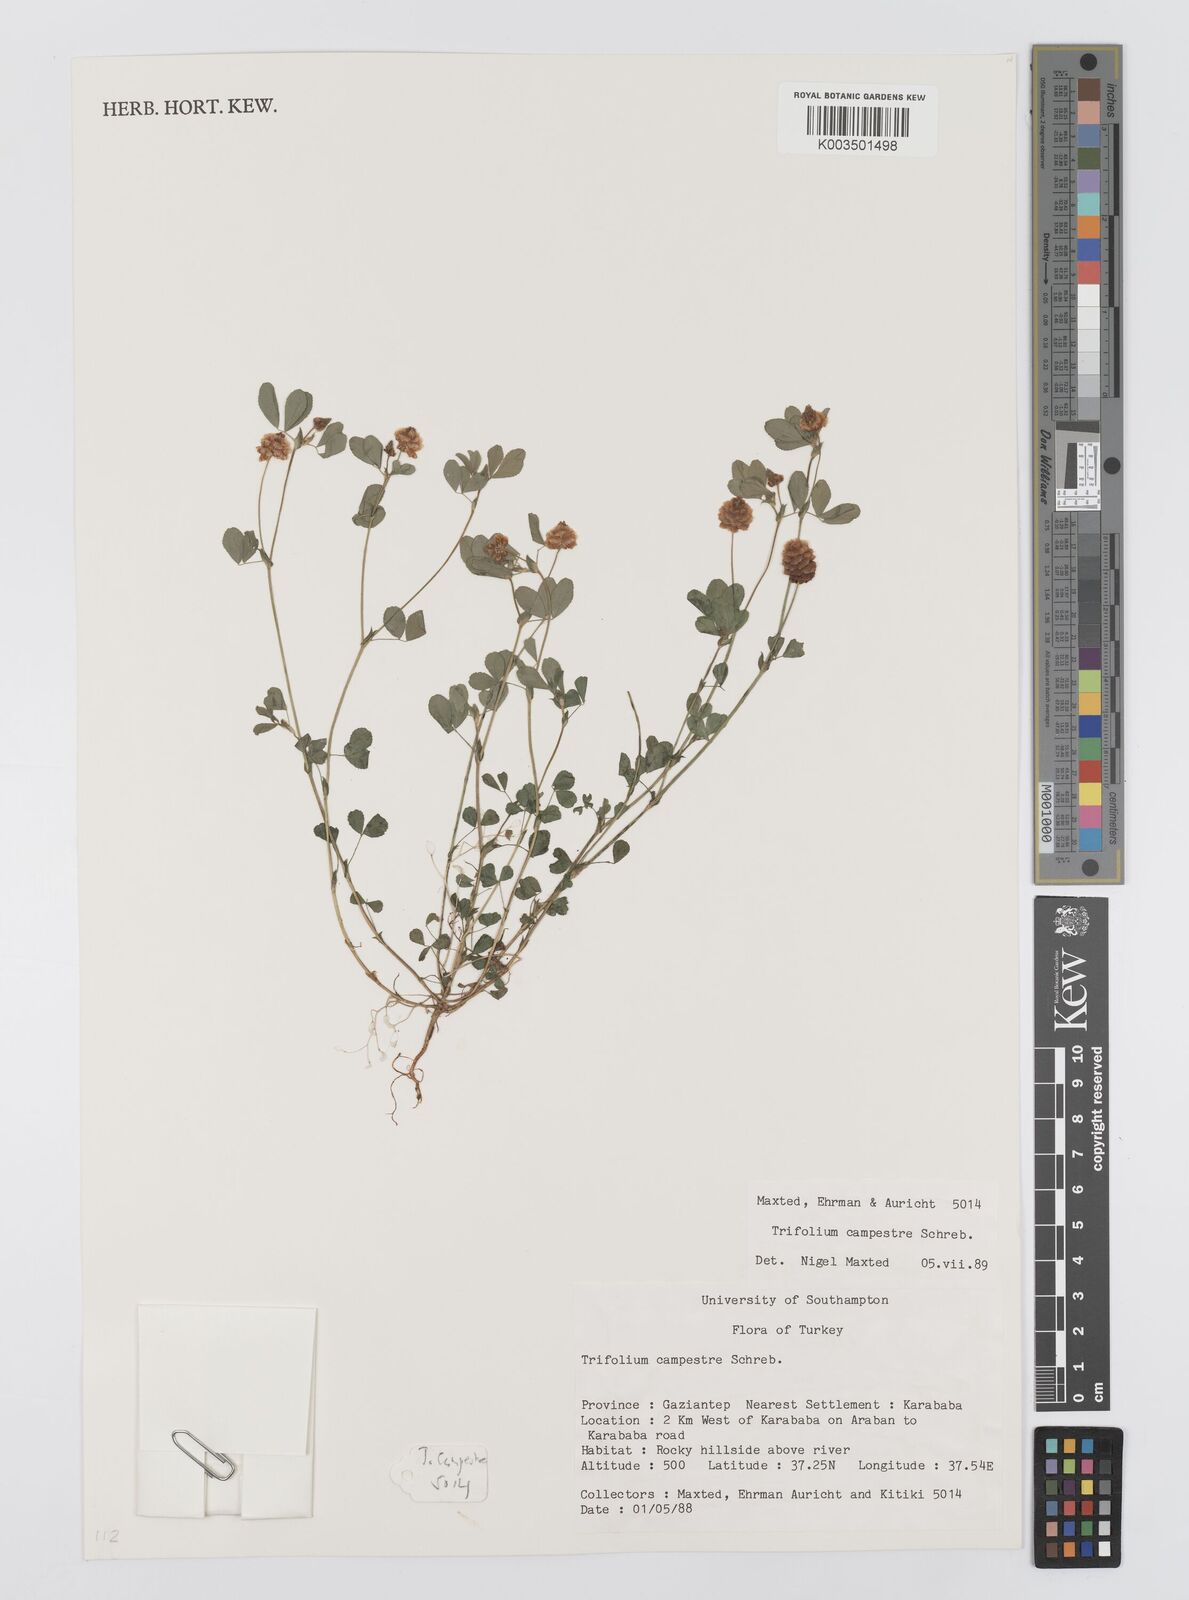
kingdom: Plantae
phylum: Tracheophyta
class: Magnoliopsida
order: Fabales
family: Fabaceae
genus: Trifolium
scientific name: Trifolium campestre
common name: Field clover
